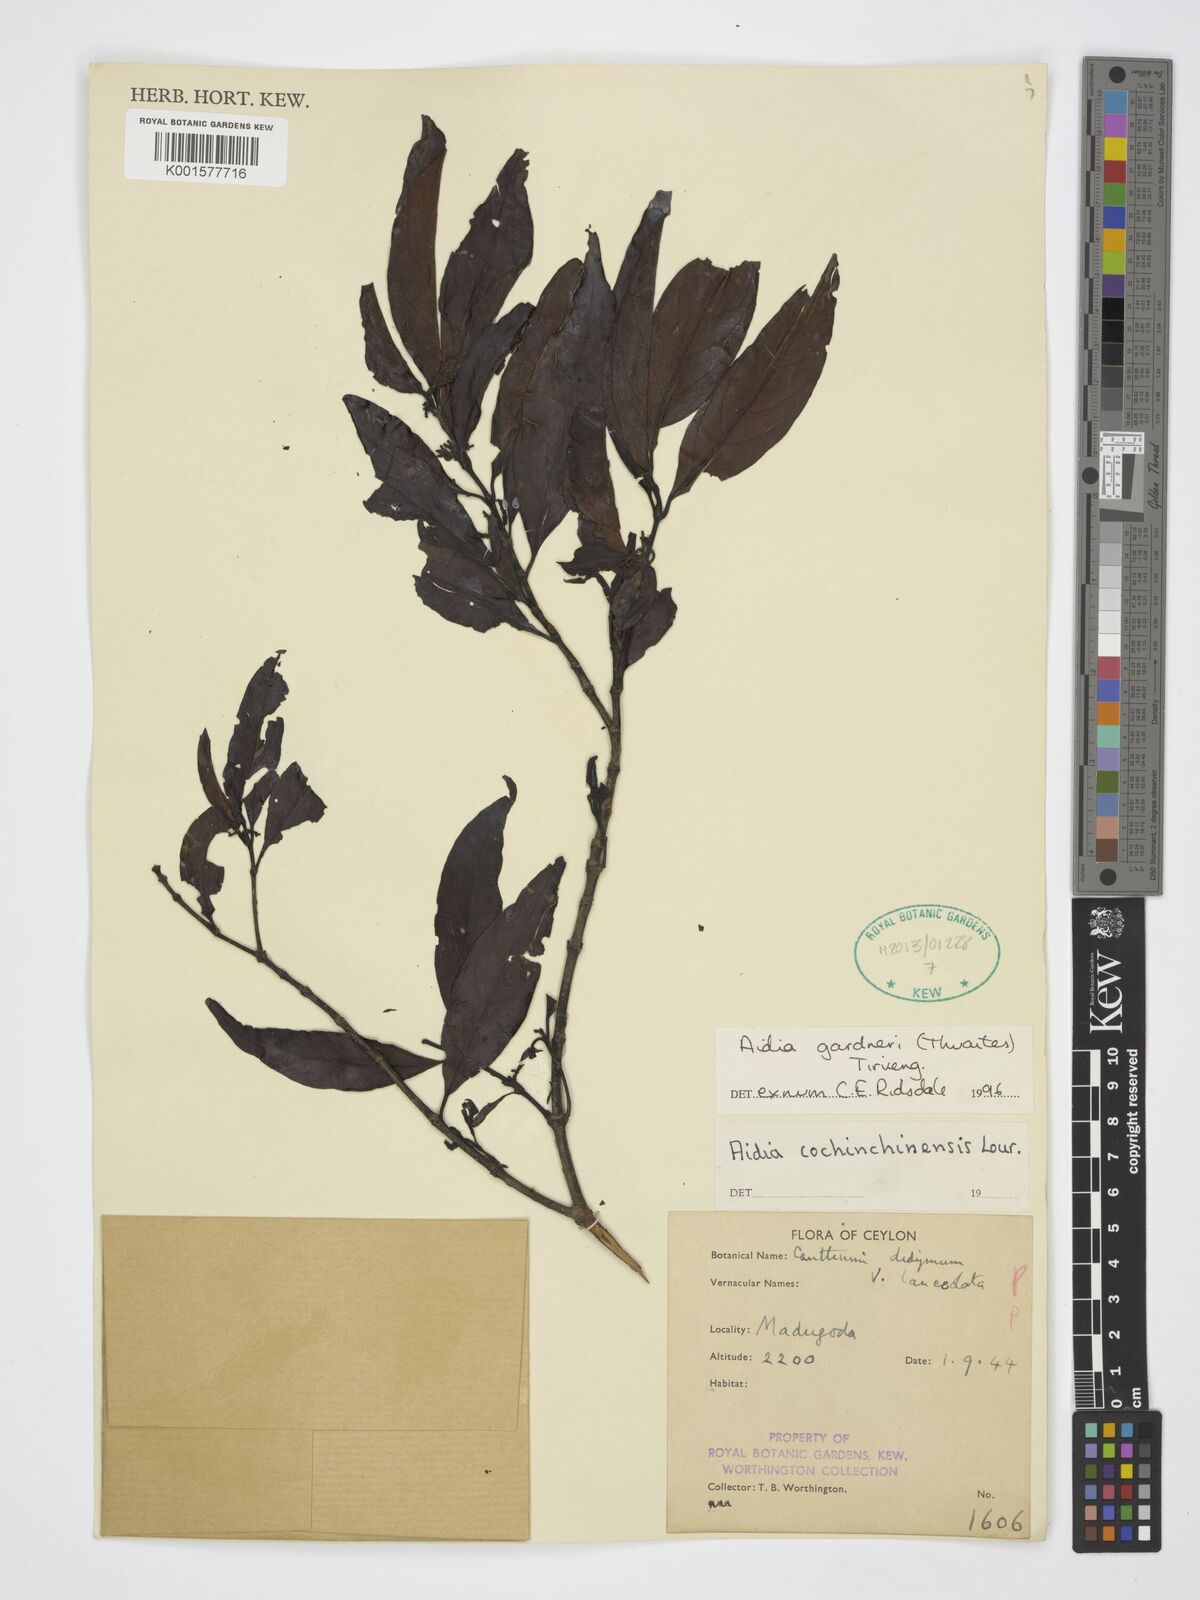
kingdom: Plantae
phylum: Tracheophyta
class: Magnoliopsida
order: Gentianales
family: Rubiaceae
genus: Aidia
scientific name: Aidia gardneri
